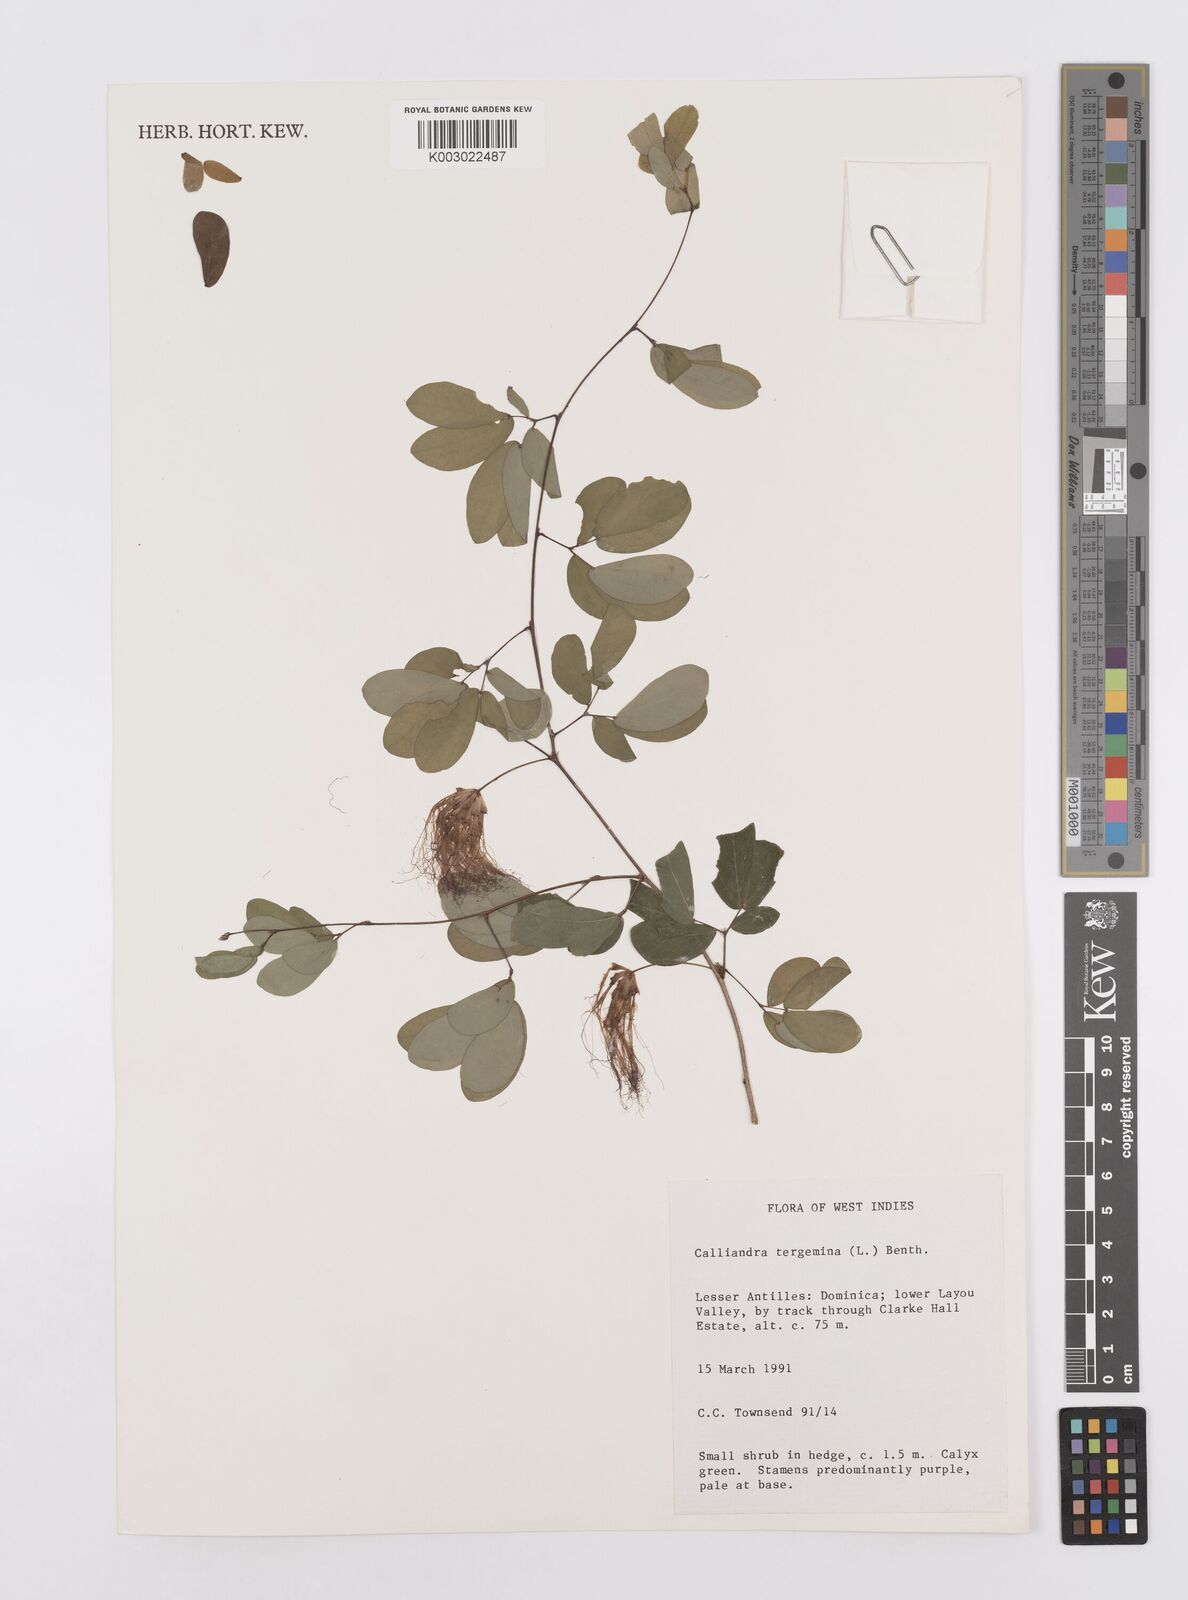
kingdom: Plantae
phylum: Tracheophyta
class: Magnoliopsida
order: Fabales
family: Fabaceae
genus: Calliandra
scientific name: Calliandra tergemina
